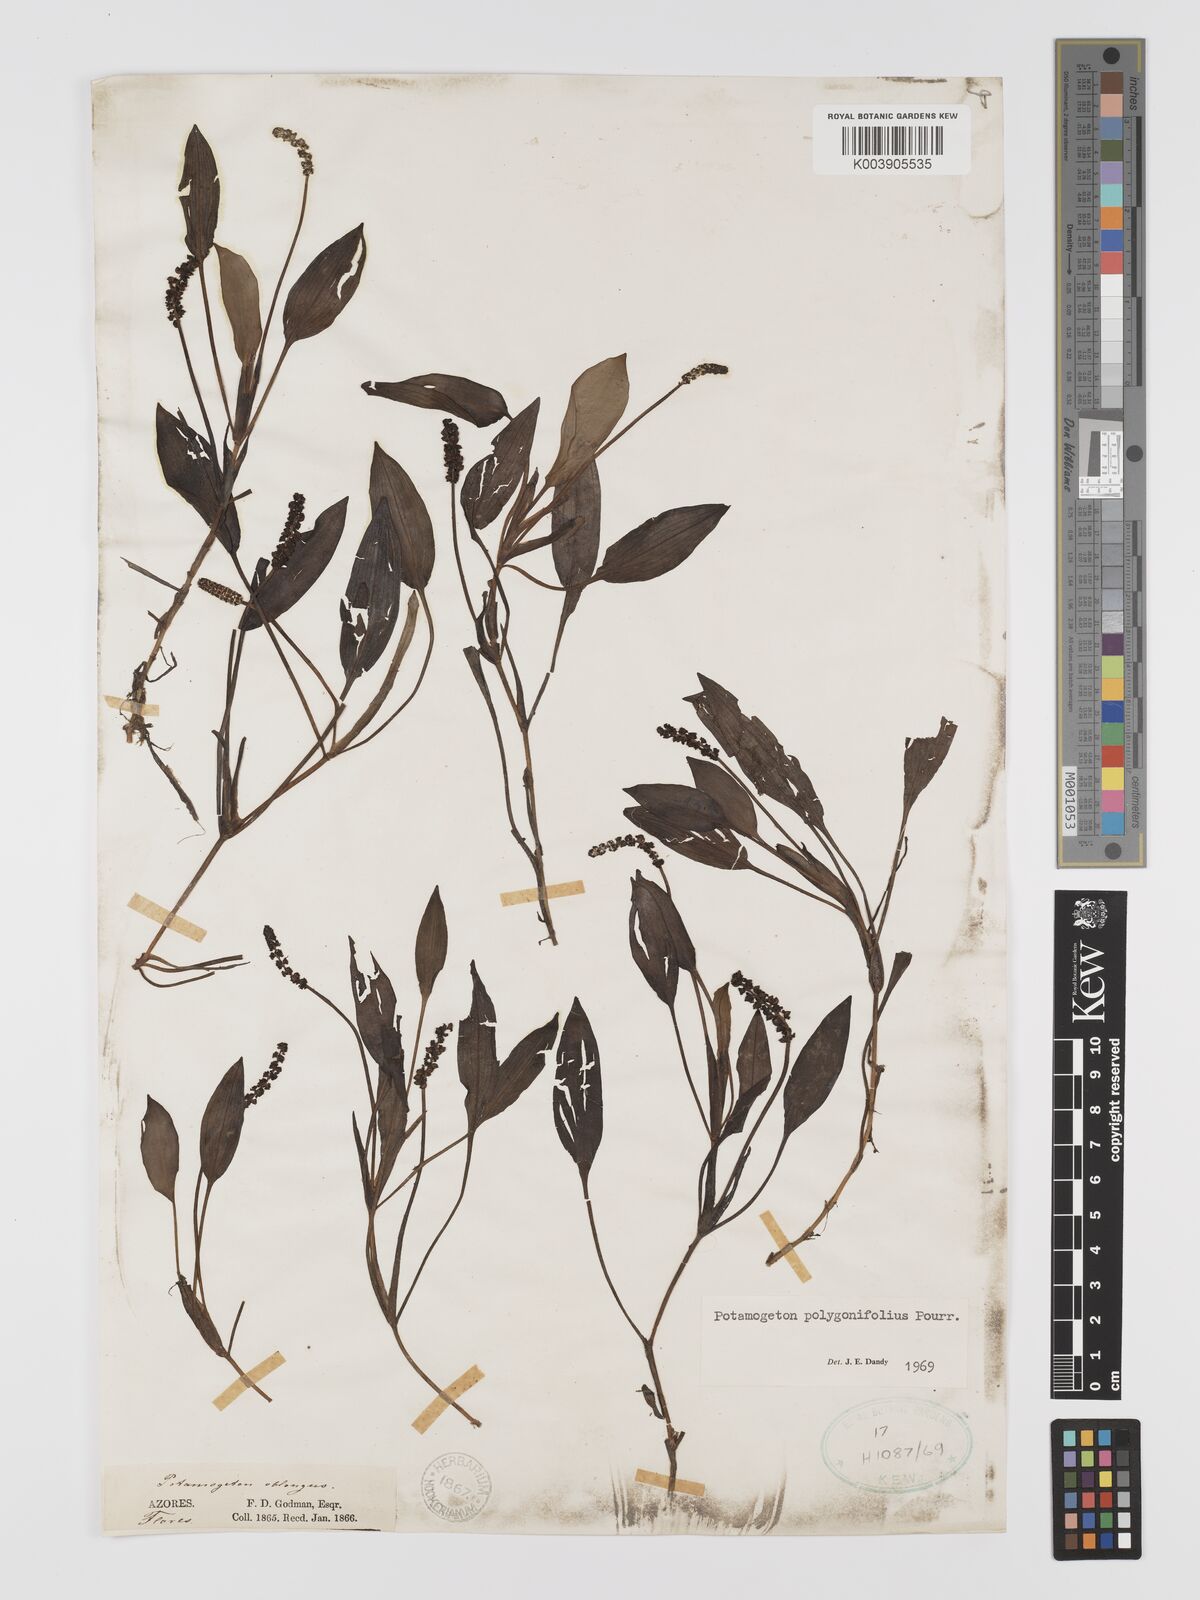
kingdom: Plantae
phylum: Tracheophyta
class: Liliopsida
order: Alismatales
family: Potamogetonaceae
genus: Potamogeton
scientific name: Potamogeton polygonifolius
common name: Bog pondweed
